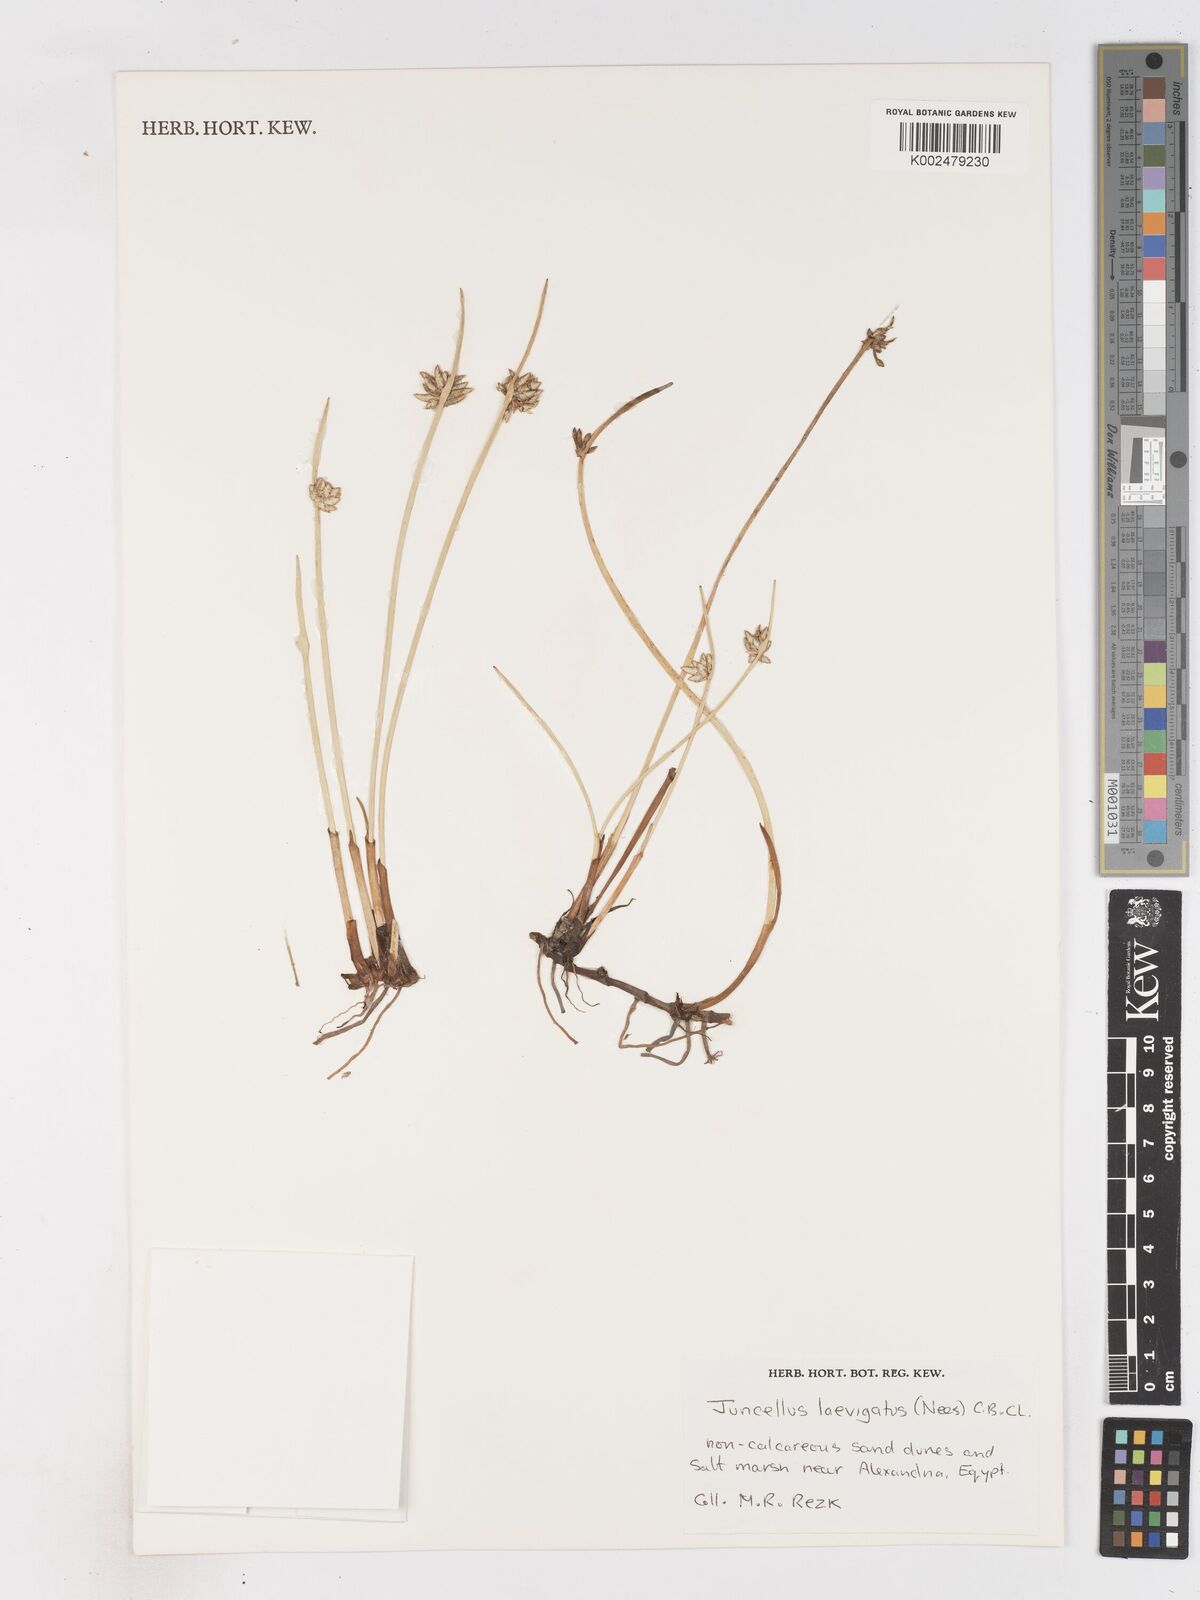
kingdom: Plantae
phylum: Tracheophyta
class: Liliopsida
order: Poales
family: Cyperaceae
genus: Cyperus
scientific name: Cyperus laevigatus
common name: Smooth flat sedge
